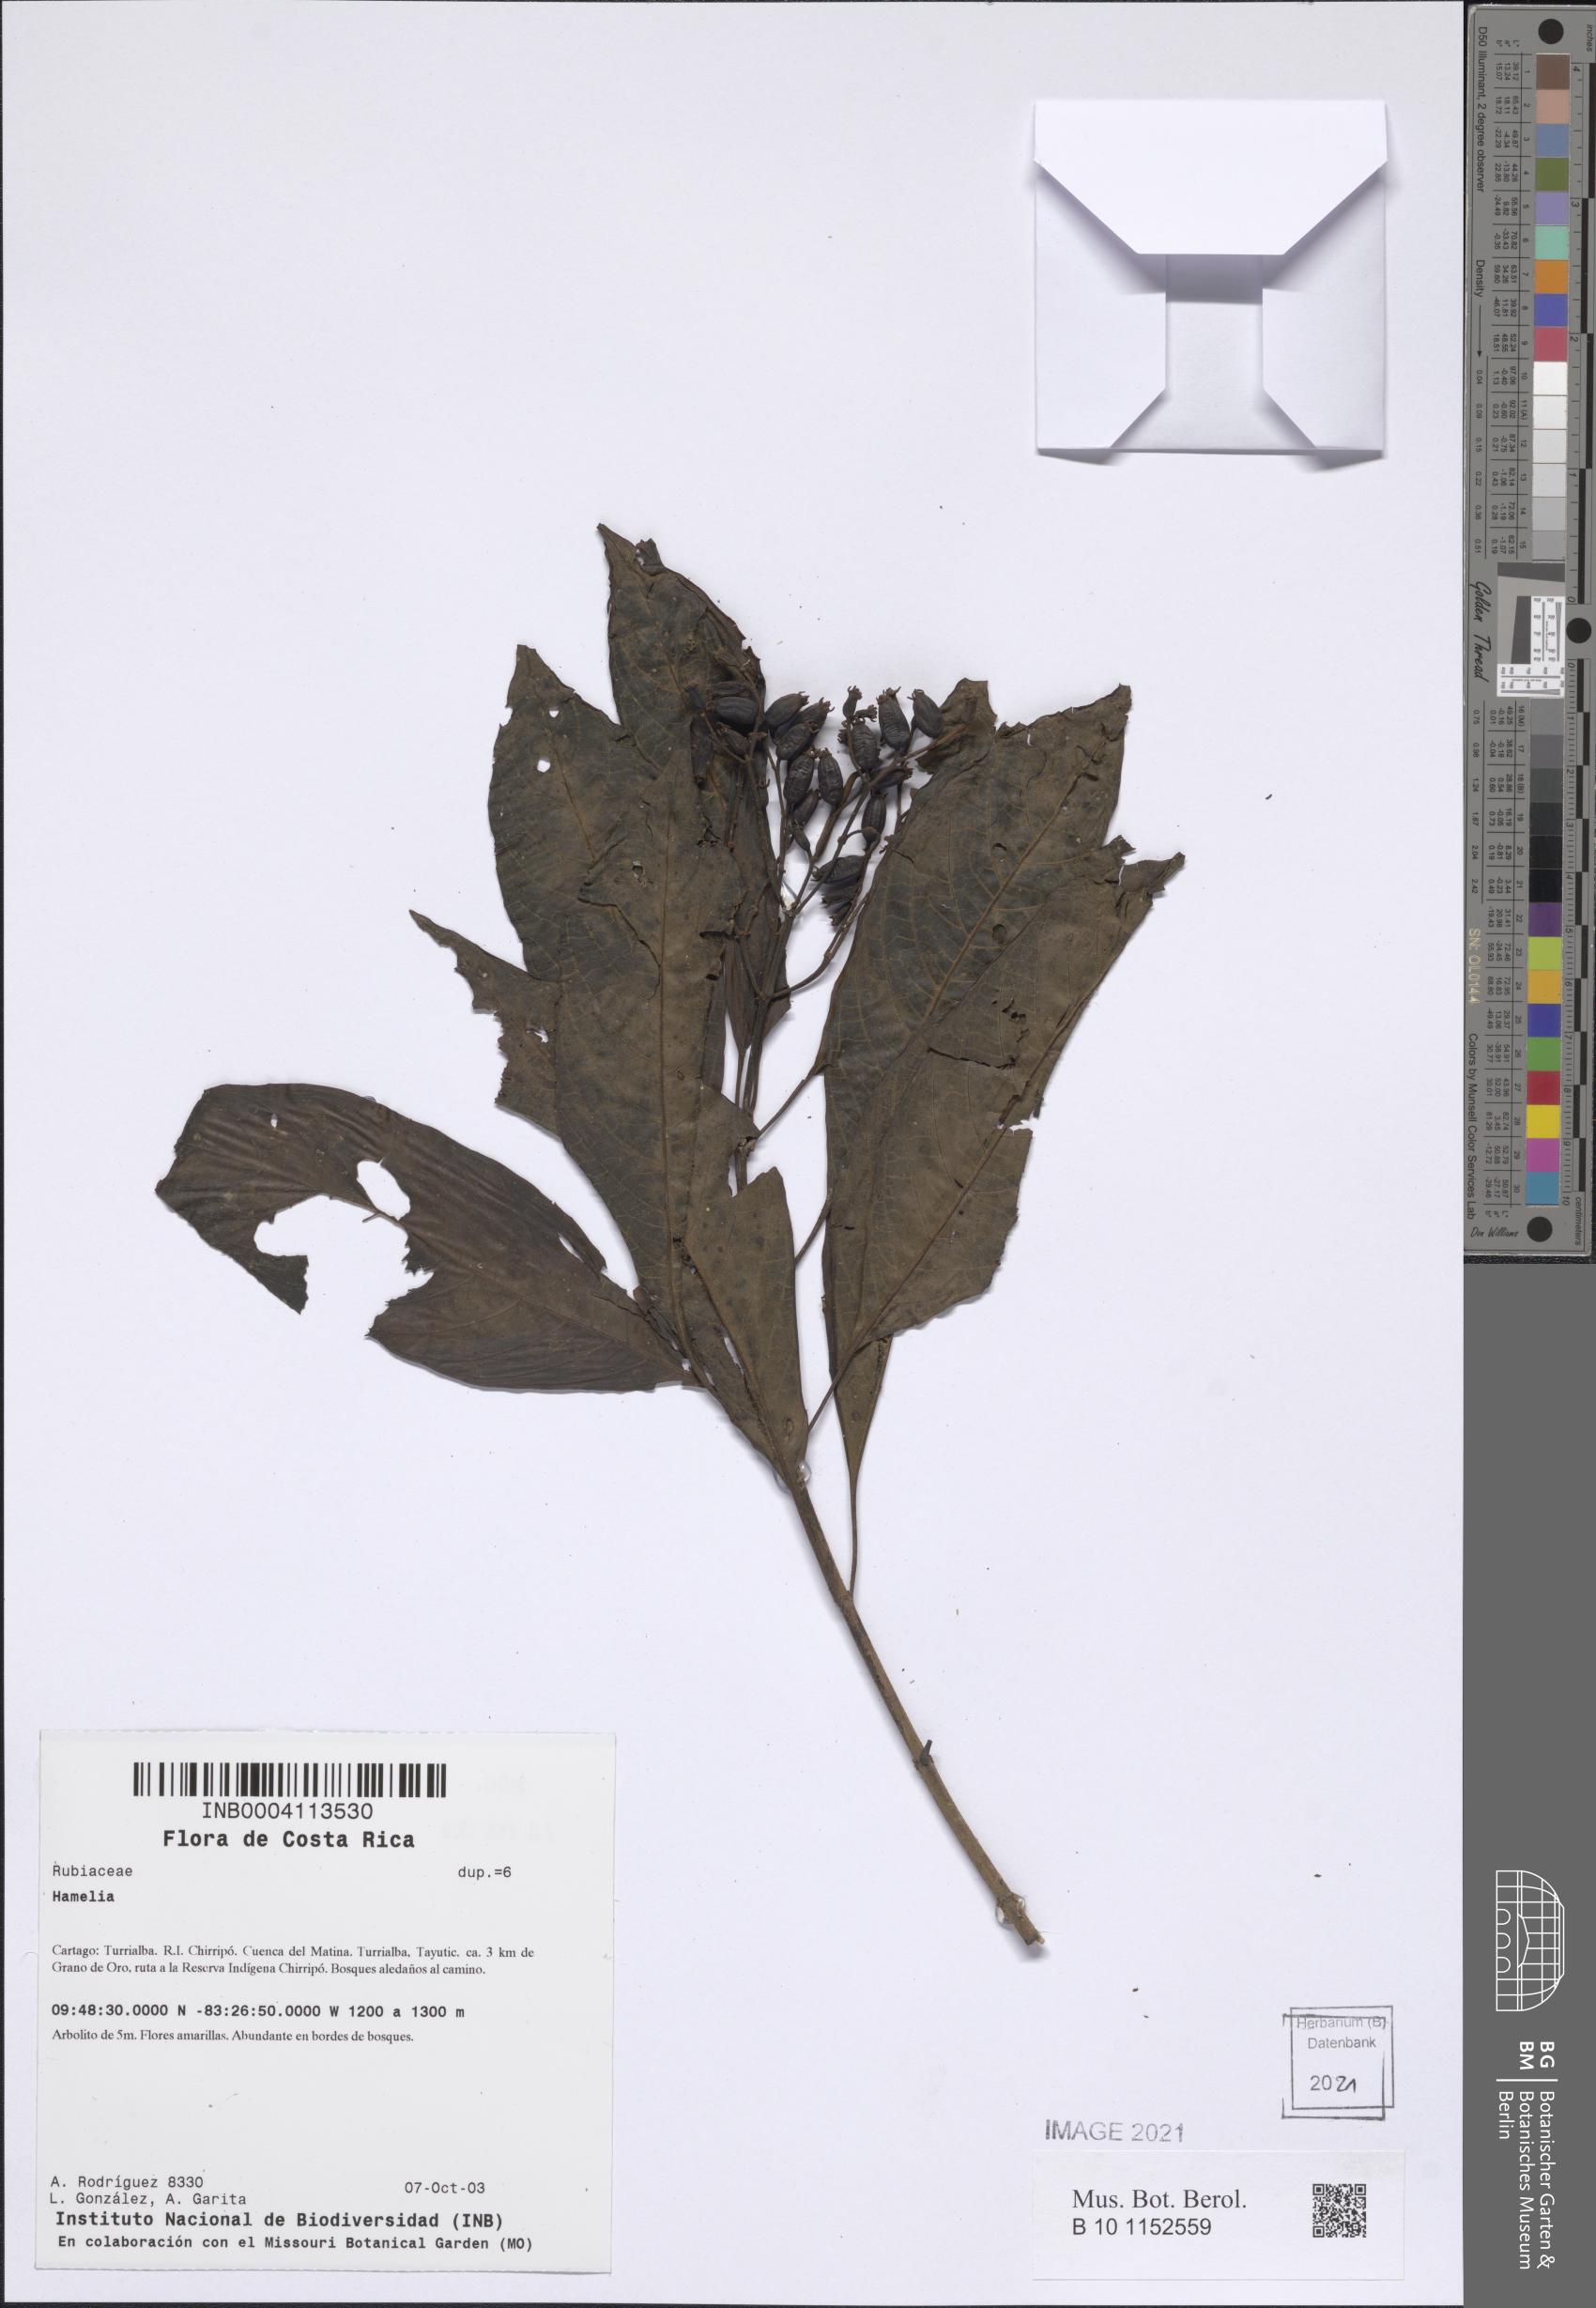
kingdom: Plantae
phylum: Tracheophyta
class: Magnoliopsida
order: Gentianales
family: Rubiaceae
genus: Hamelia
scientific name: Hamelia patens
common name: Redhead
